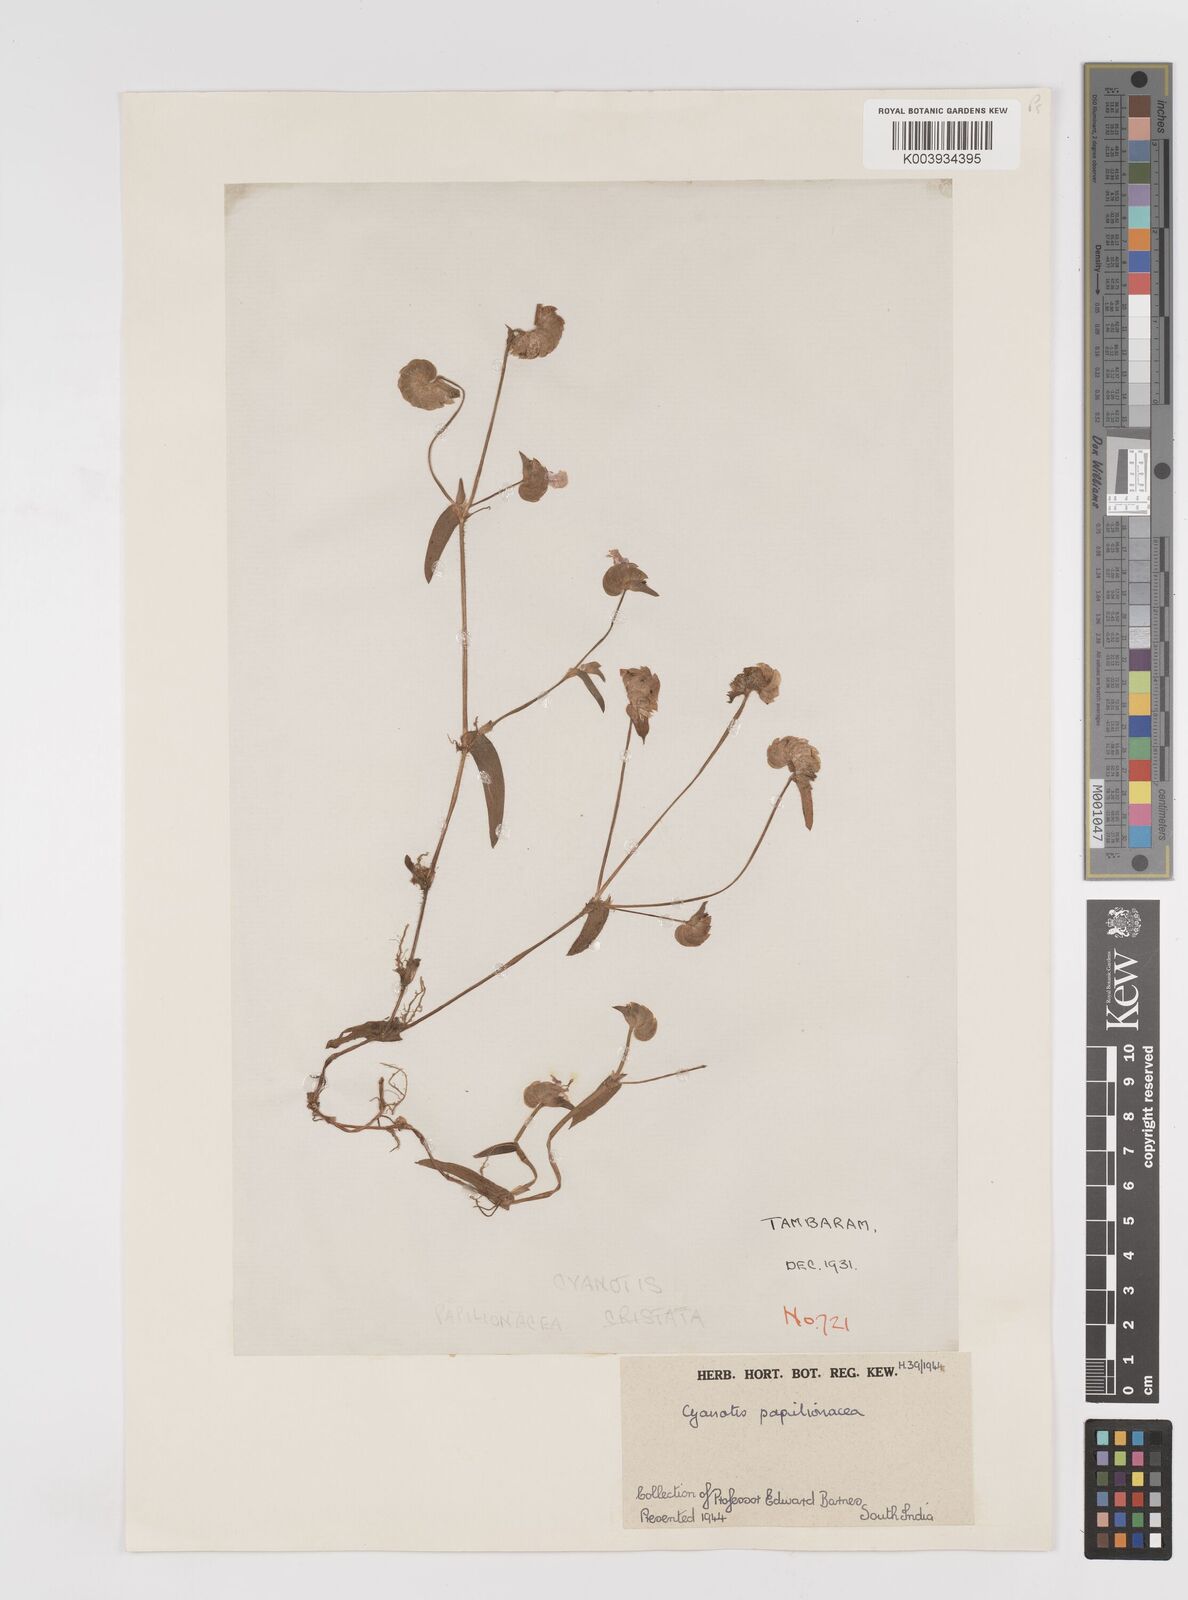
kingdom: Plantae
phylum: Tracheophyta
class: Liliopsida
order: Commelinales
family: Commelinaceae
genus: Cyanotis
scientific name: Cyanotis cristata
